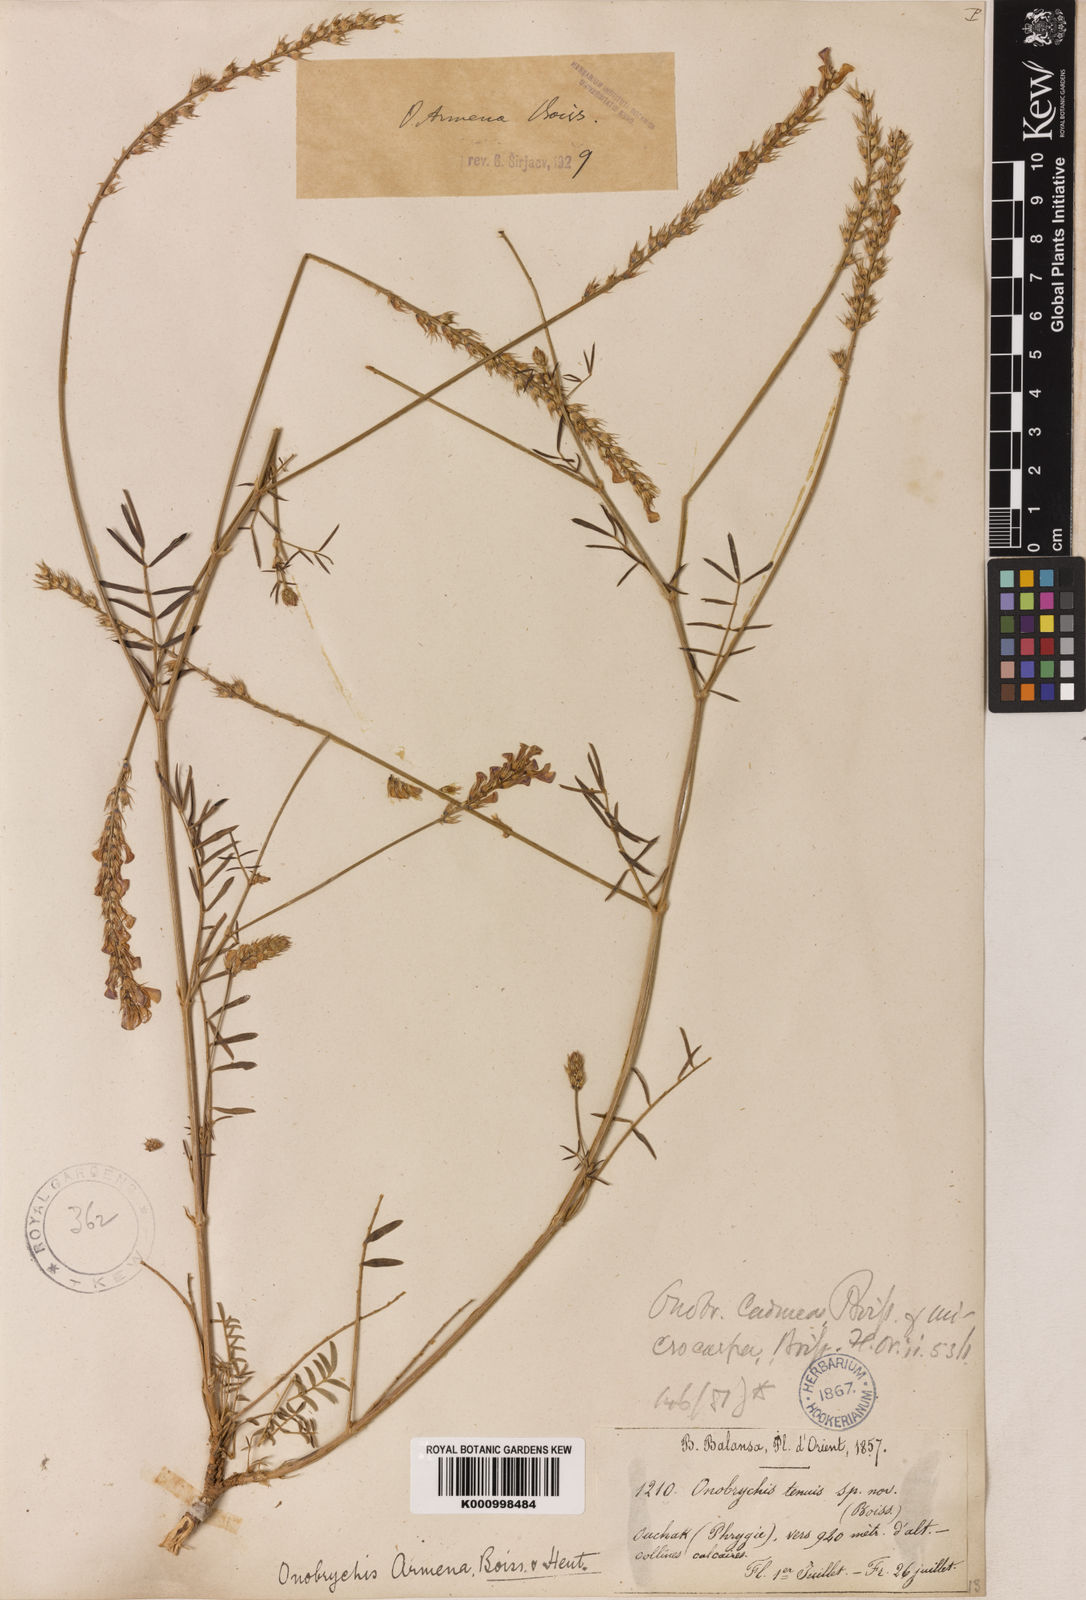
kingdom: Plantae
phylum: Tracheophyta
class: Magnoliopsida
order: Fabales
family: Fabaceae
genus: Onobrychis
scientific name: Onobrychis arenaria
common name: Sand esparcet
